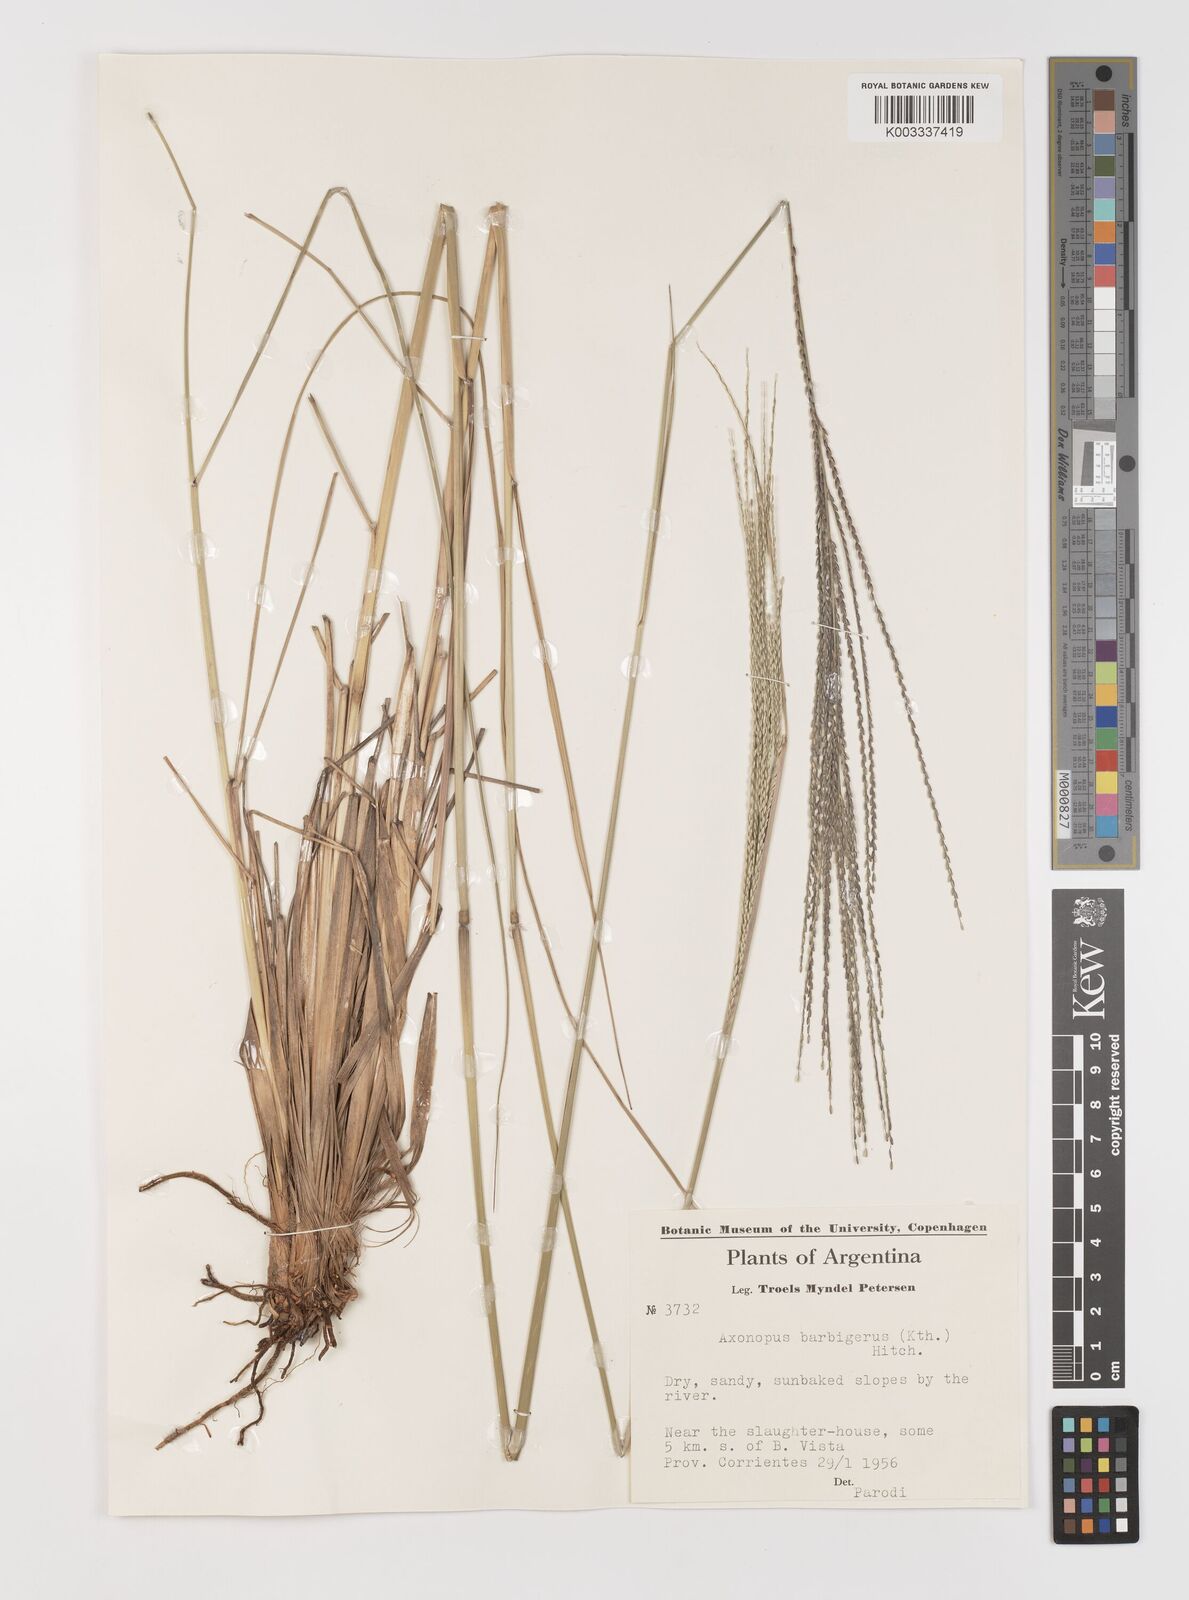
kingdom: Plantae
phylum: Tracheophyta
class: Liliopsida
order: Poales
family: Poaceae
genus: Axonopus
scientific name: Axonopus siccus
